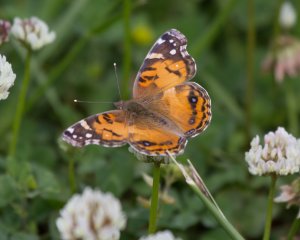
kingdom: Animalia
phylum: Arthropoda
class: Insecta
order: Lepidoptera
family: Nymphalidae
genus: Vanessa
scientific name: Vanessa virginiensis
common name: American Lady
